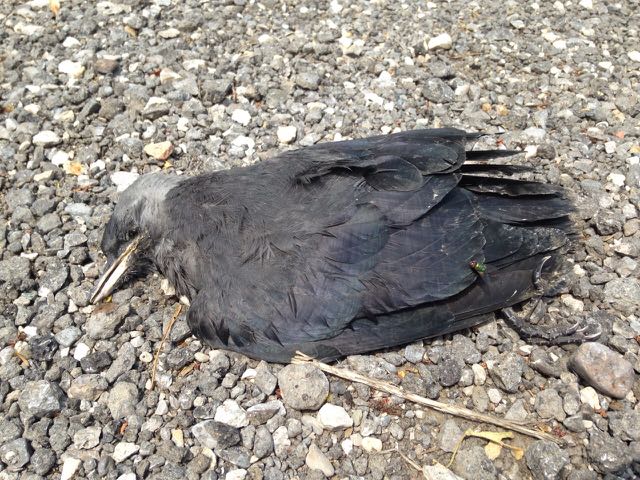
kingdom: Animalia
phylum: Chordata
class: Aves
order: Passeriformes
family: Corvidae
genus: Coloeus
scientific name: Coloeus monedula
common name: Western jackdaw
